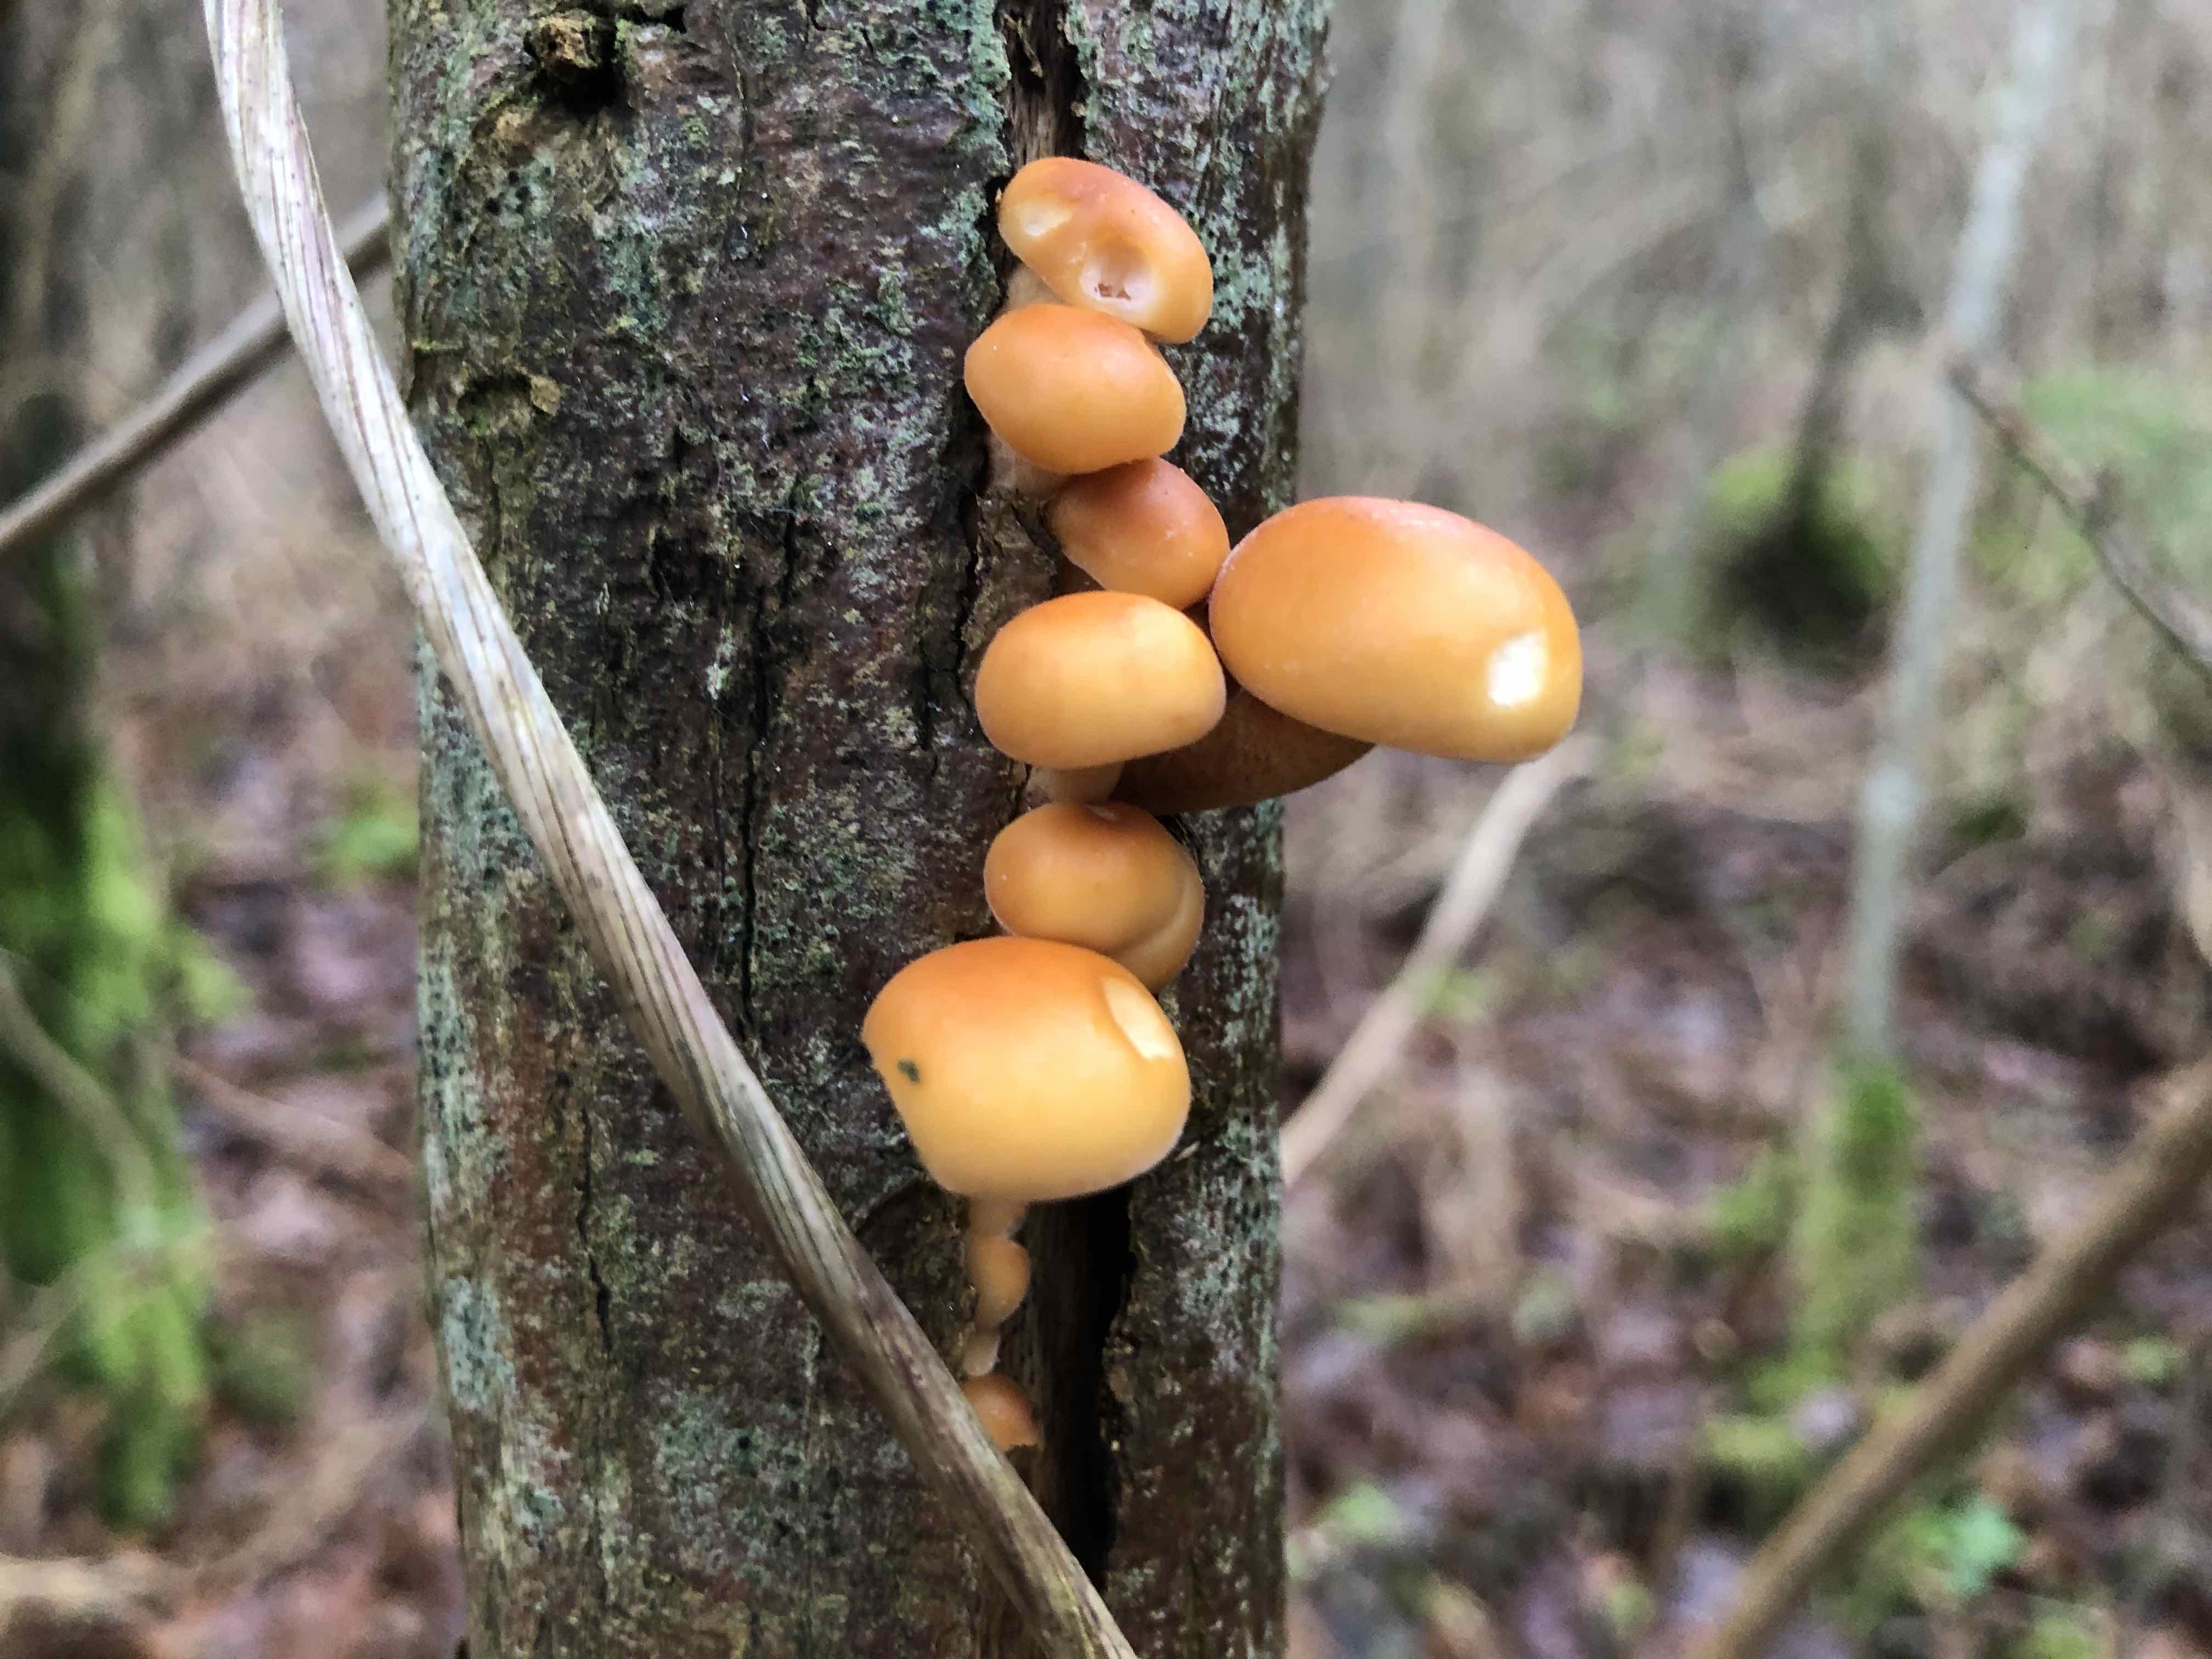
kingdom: Fungi
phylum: Basidiomycota
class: Agaricomycetes
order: Agaricales
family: Physalacriaceae
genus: Flammulina
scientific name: Flammulina
